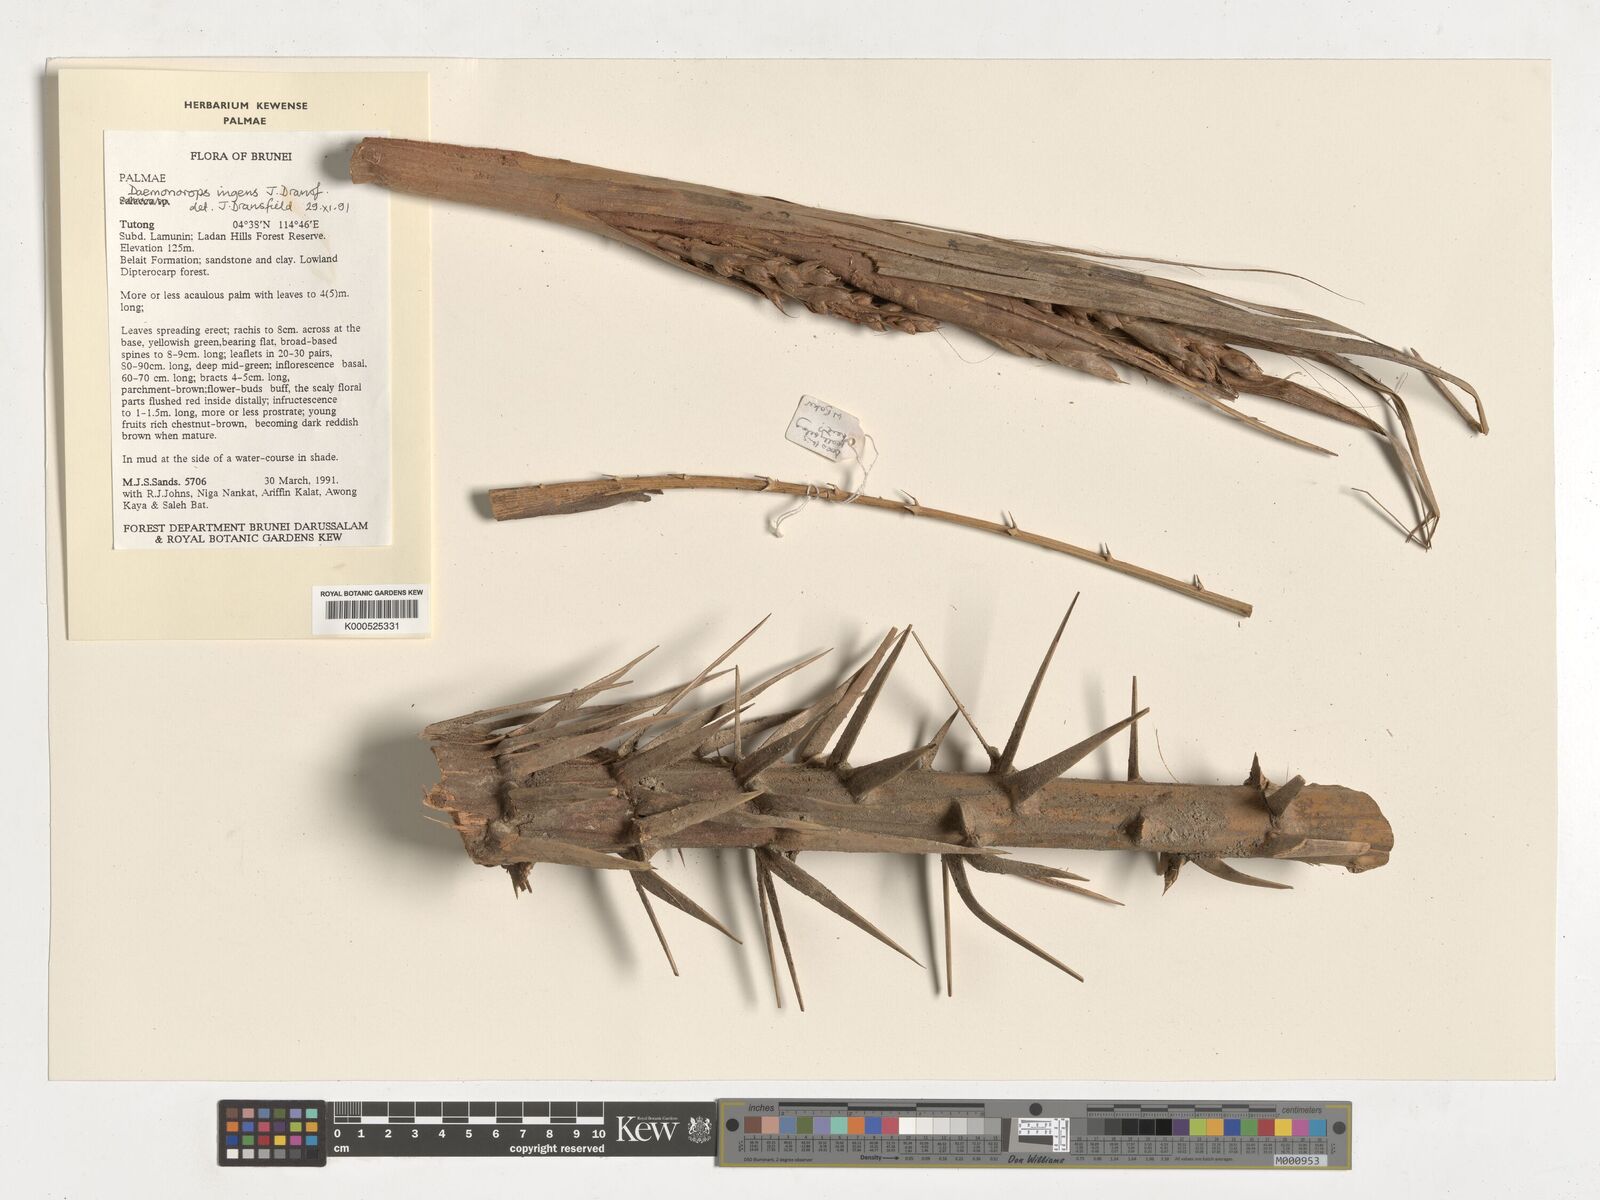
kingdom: Plantae
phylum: Tracheophyta
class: Liliopsida
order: Arecales
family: Arecaceae
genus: Calamus
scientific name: Calamus ingens
